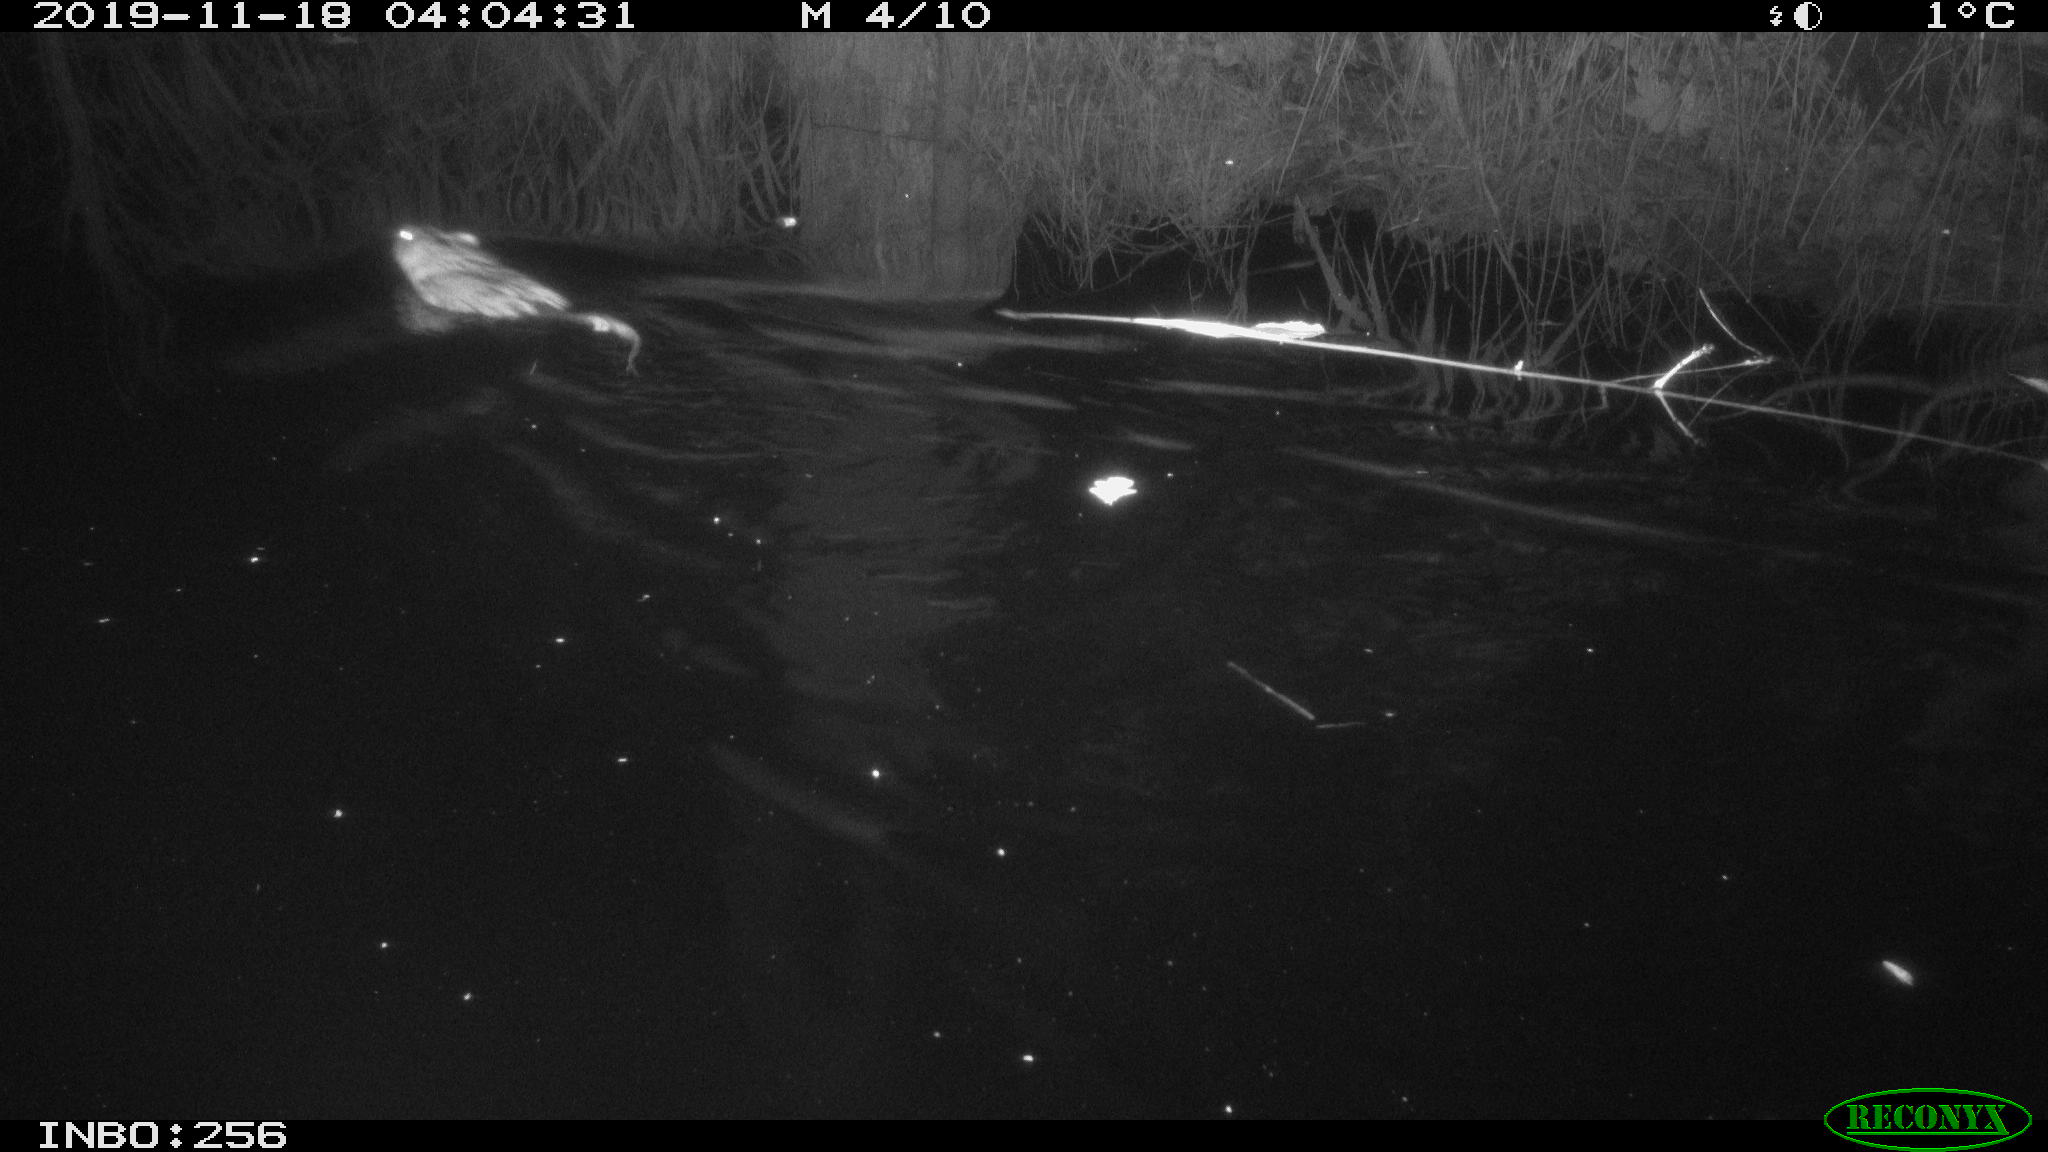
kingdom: Animalia
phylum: Chordata
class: Mammalia
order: Rodentia
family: Cricetidae
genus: Ondatra
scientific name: Ondatra zibethicus
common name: Muskrat
